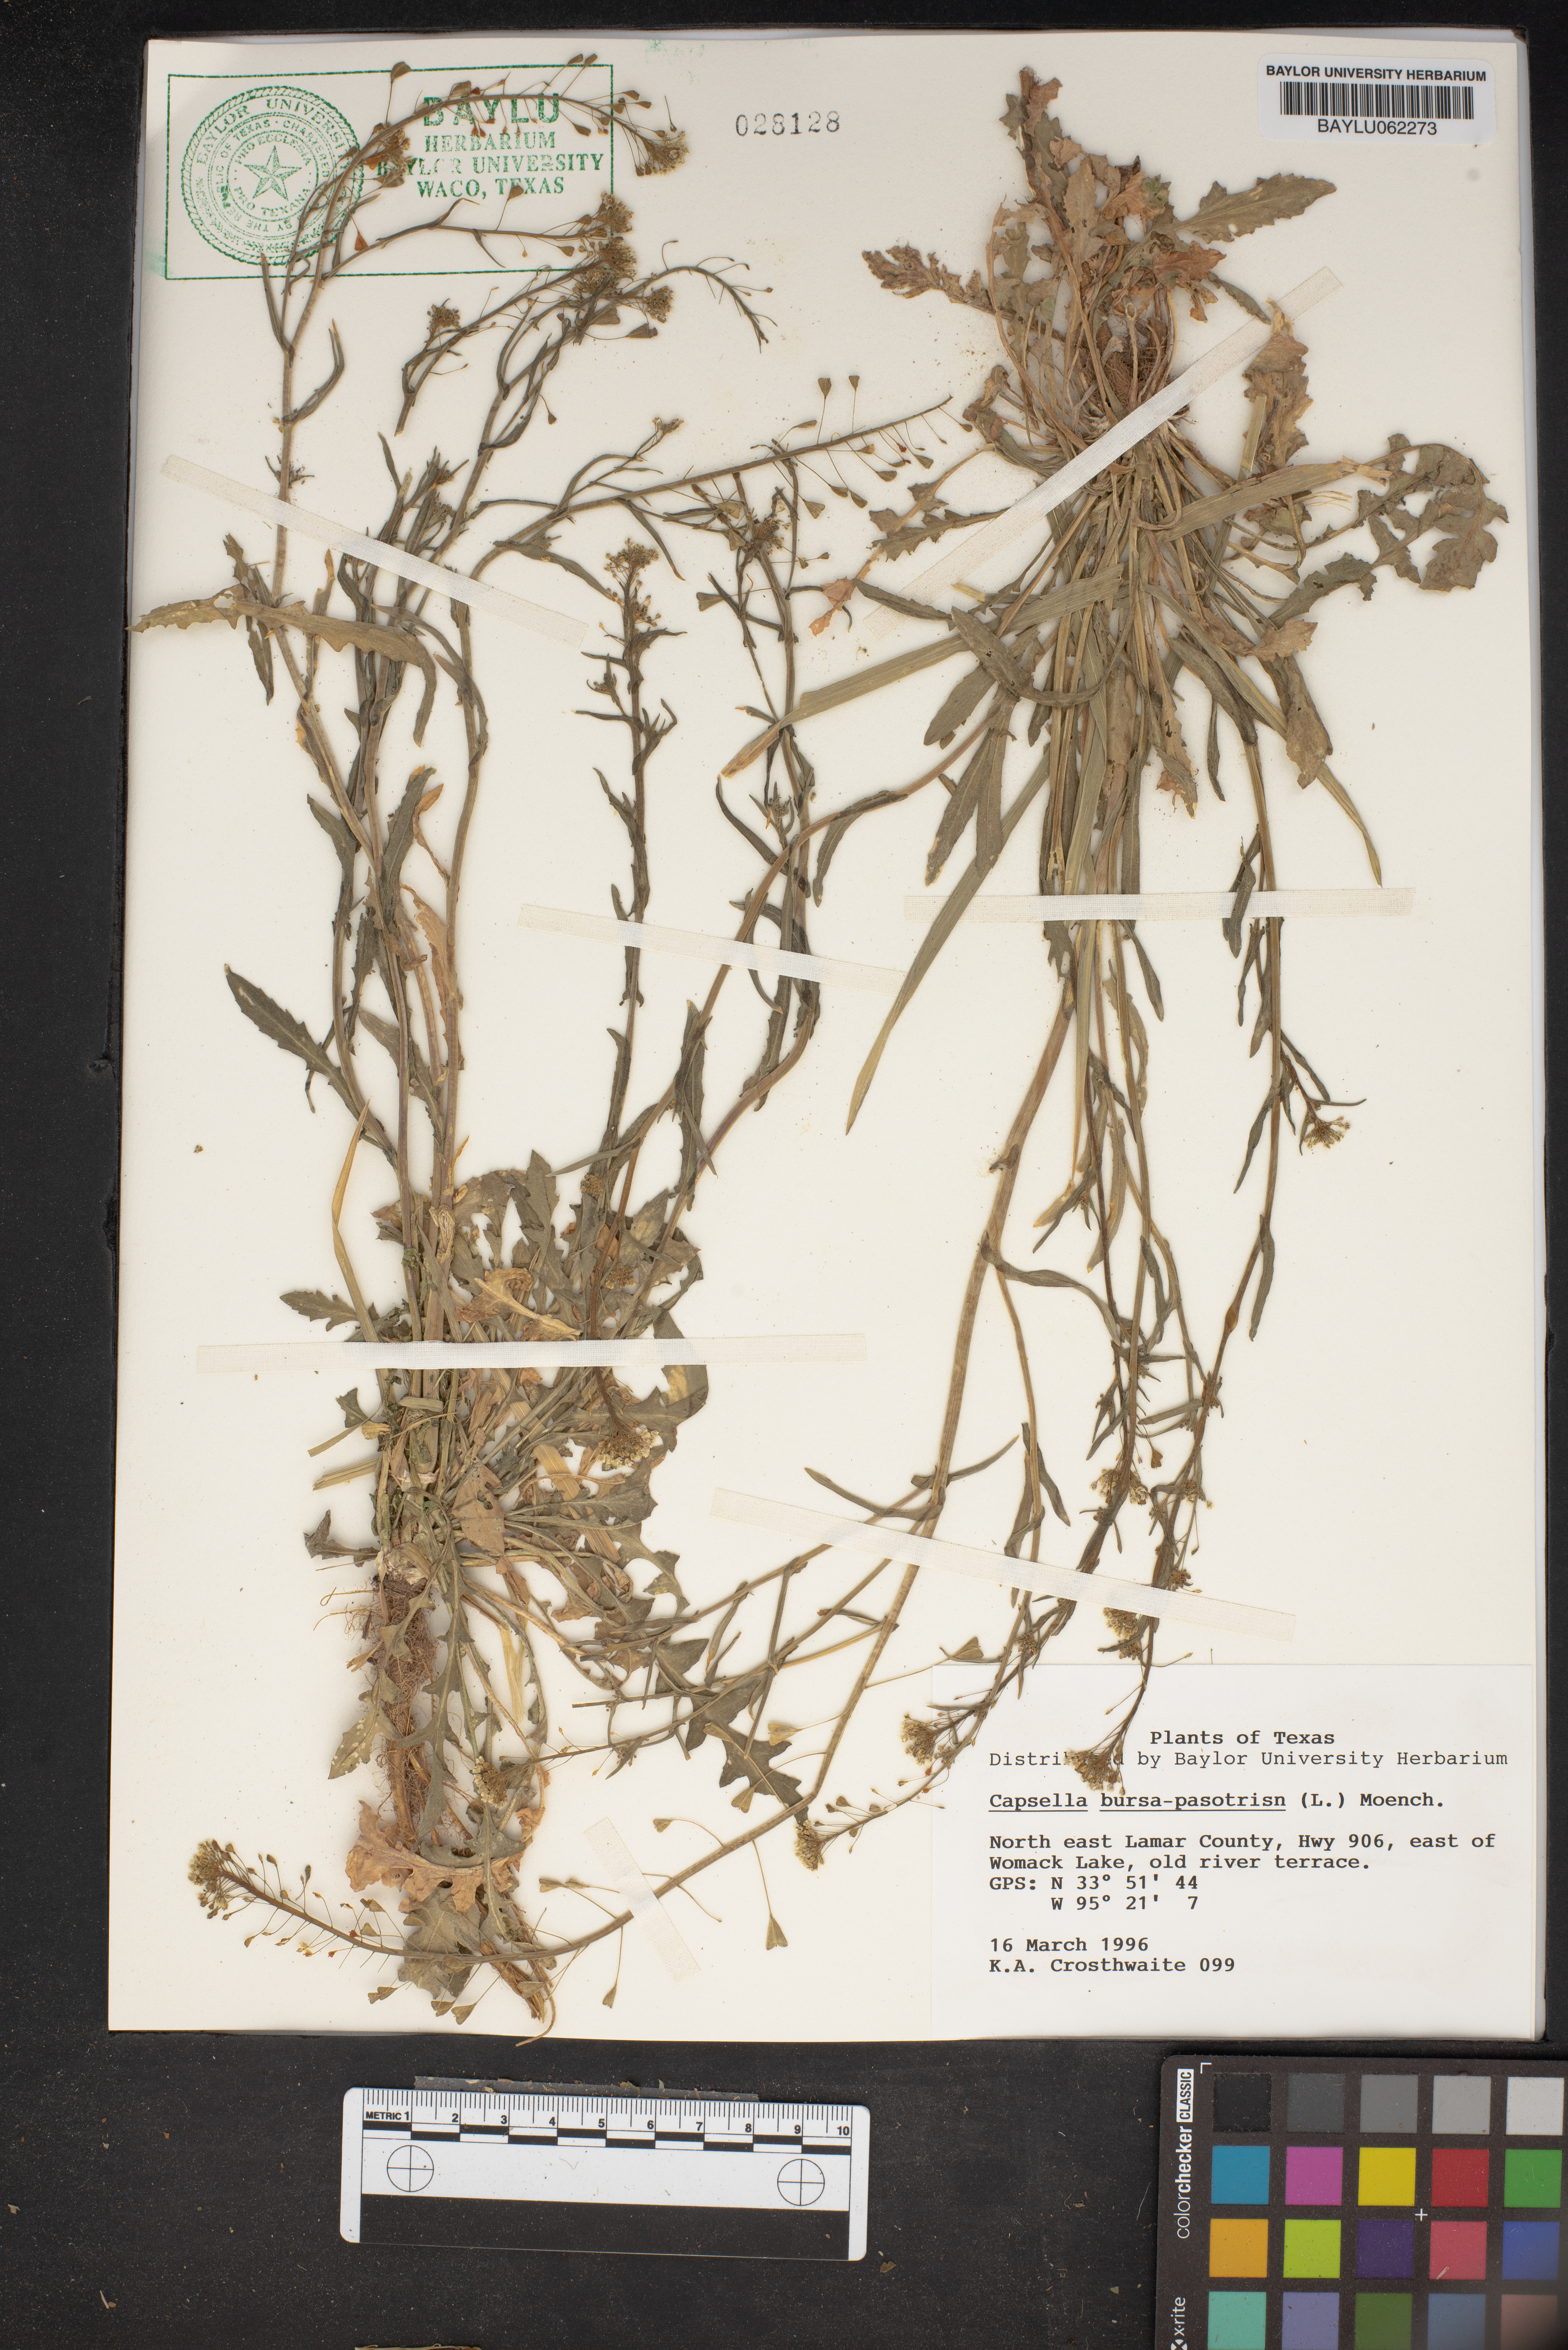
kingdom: Plantae
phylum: Tracheophyta
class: Magnoliopsida
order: Brassicales
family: Brassicaceae
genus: Capsella
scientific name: Capsella bursa-pastoris
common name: Shepherd's purse
